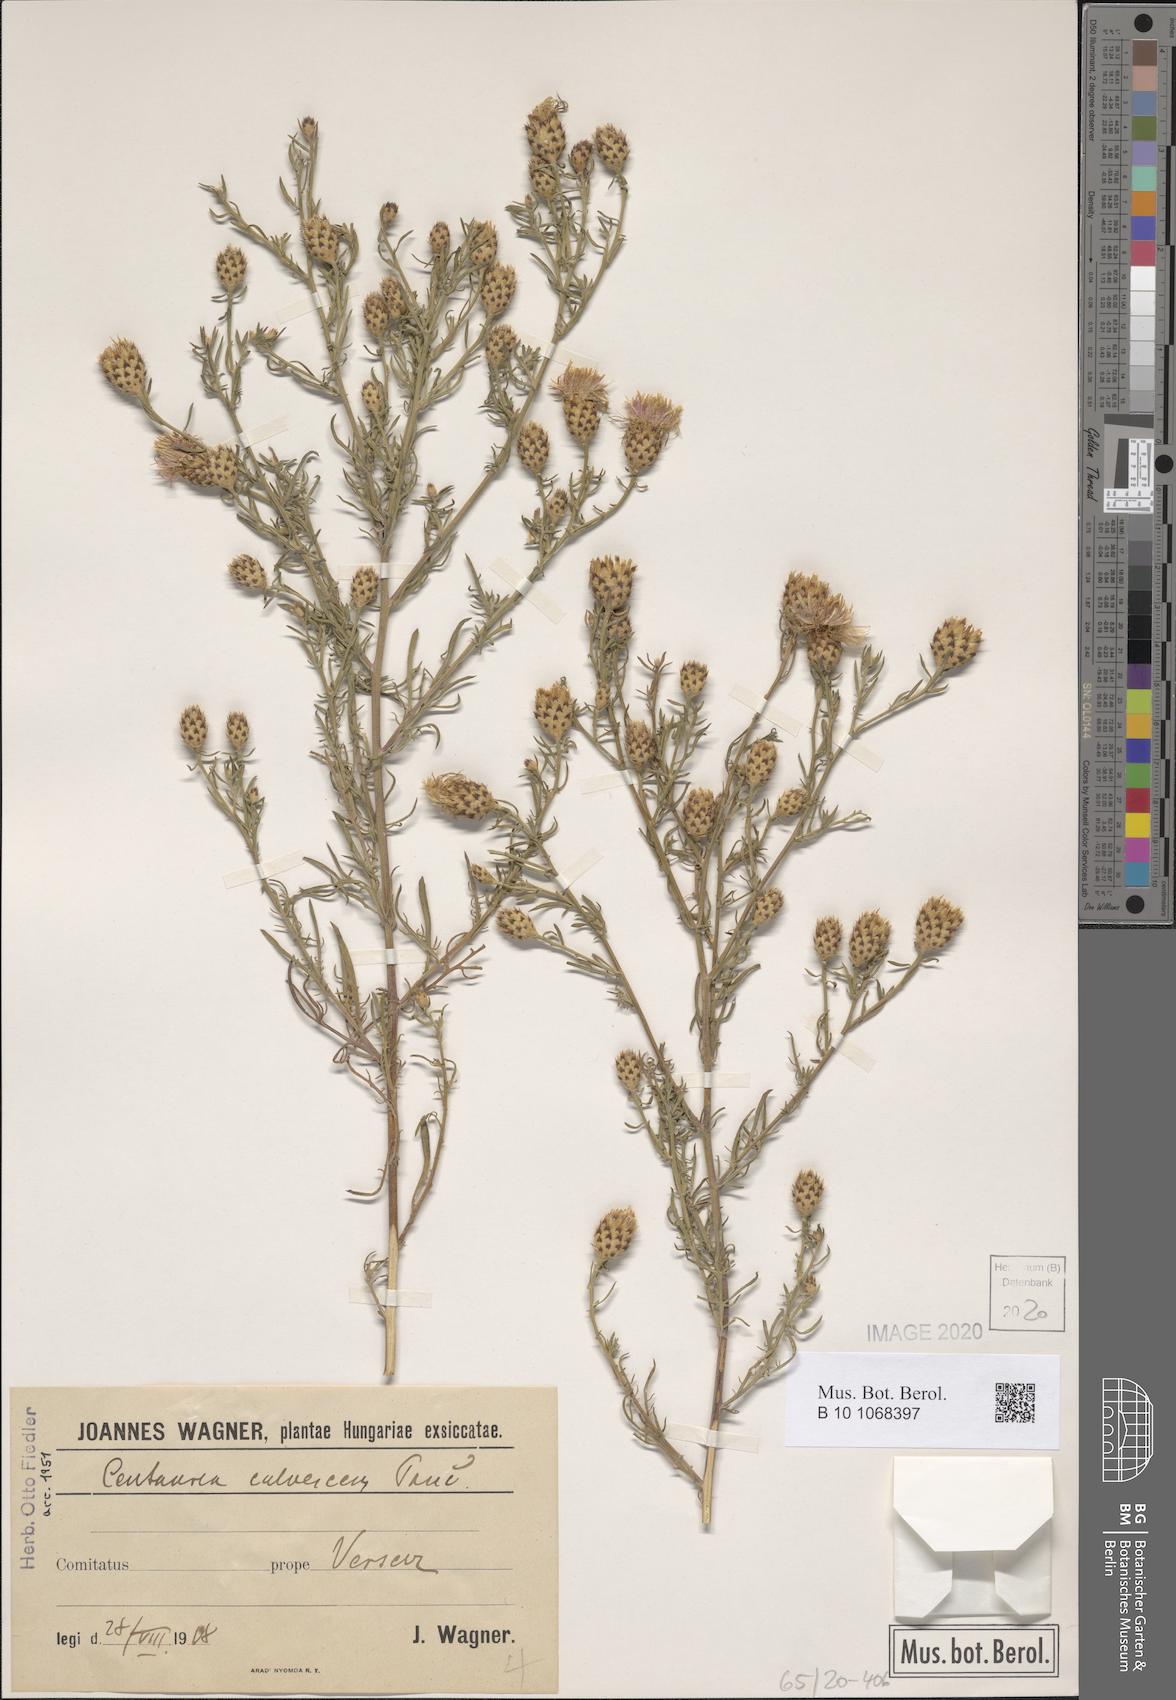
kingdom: Plantae
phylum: Tracheophyta
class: Magnoliopsida
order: Asterales
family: Asteraceae
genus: Centaurea
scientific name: Centaurea reichenbachii
